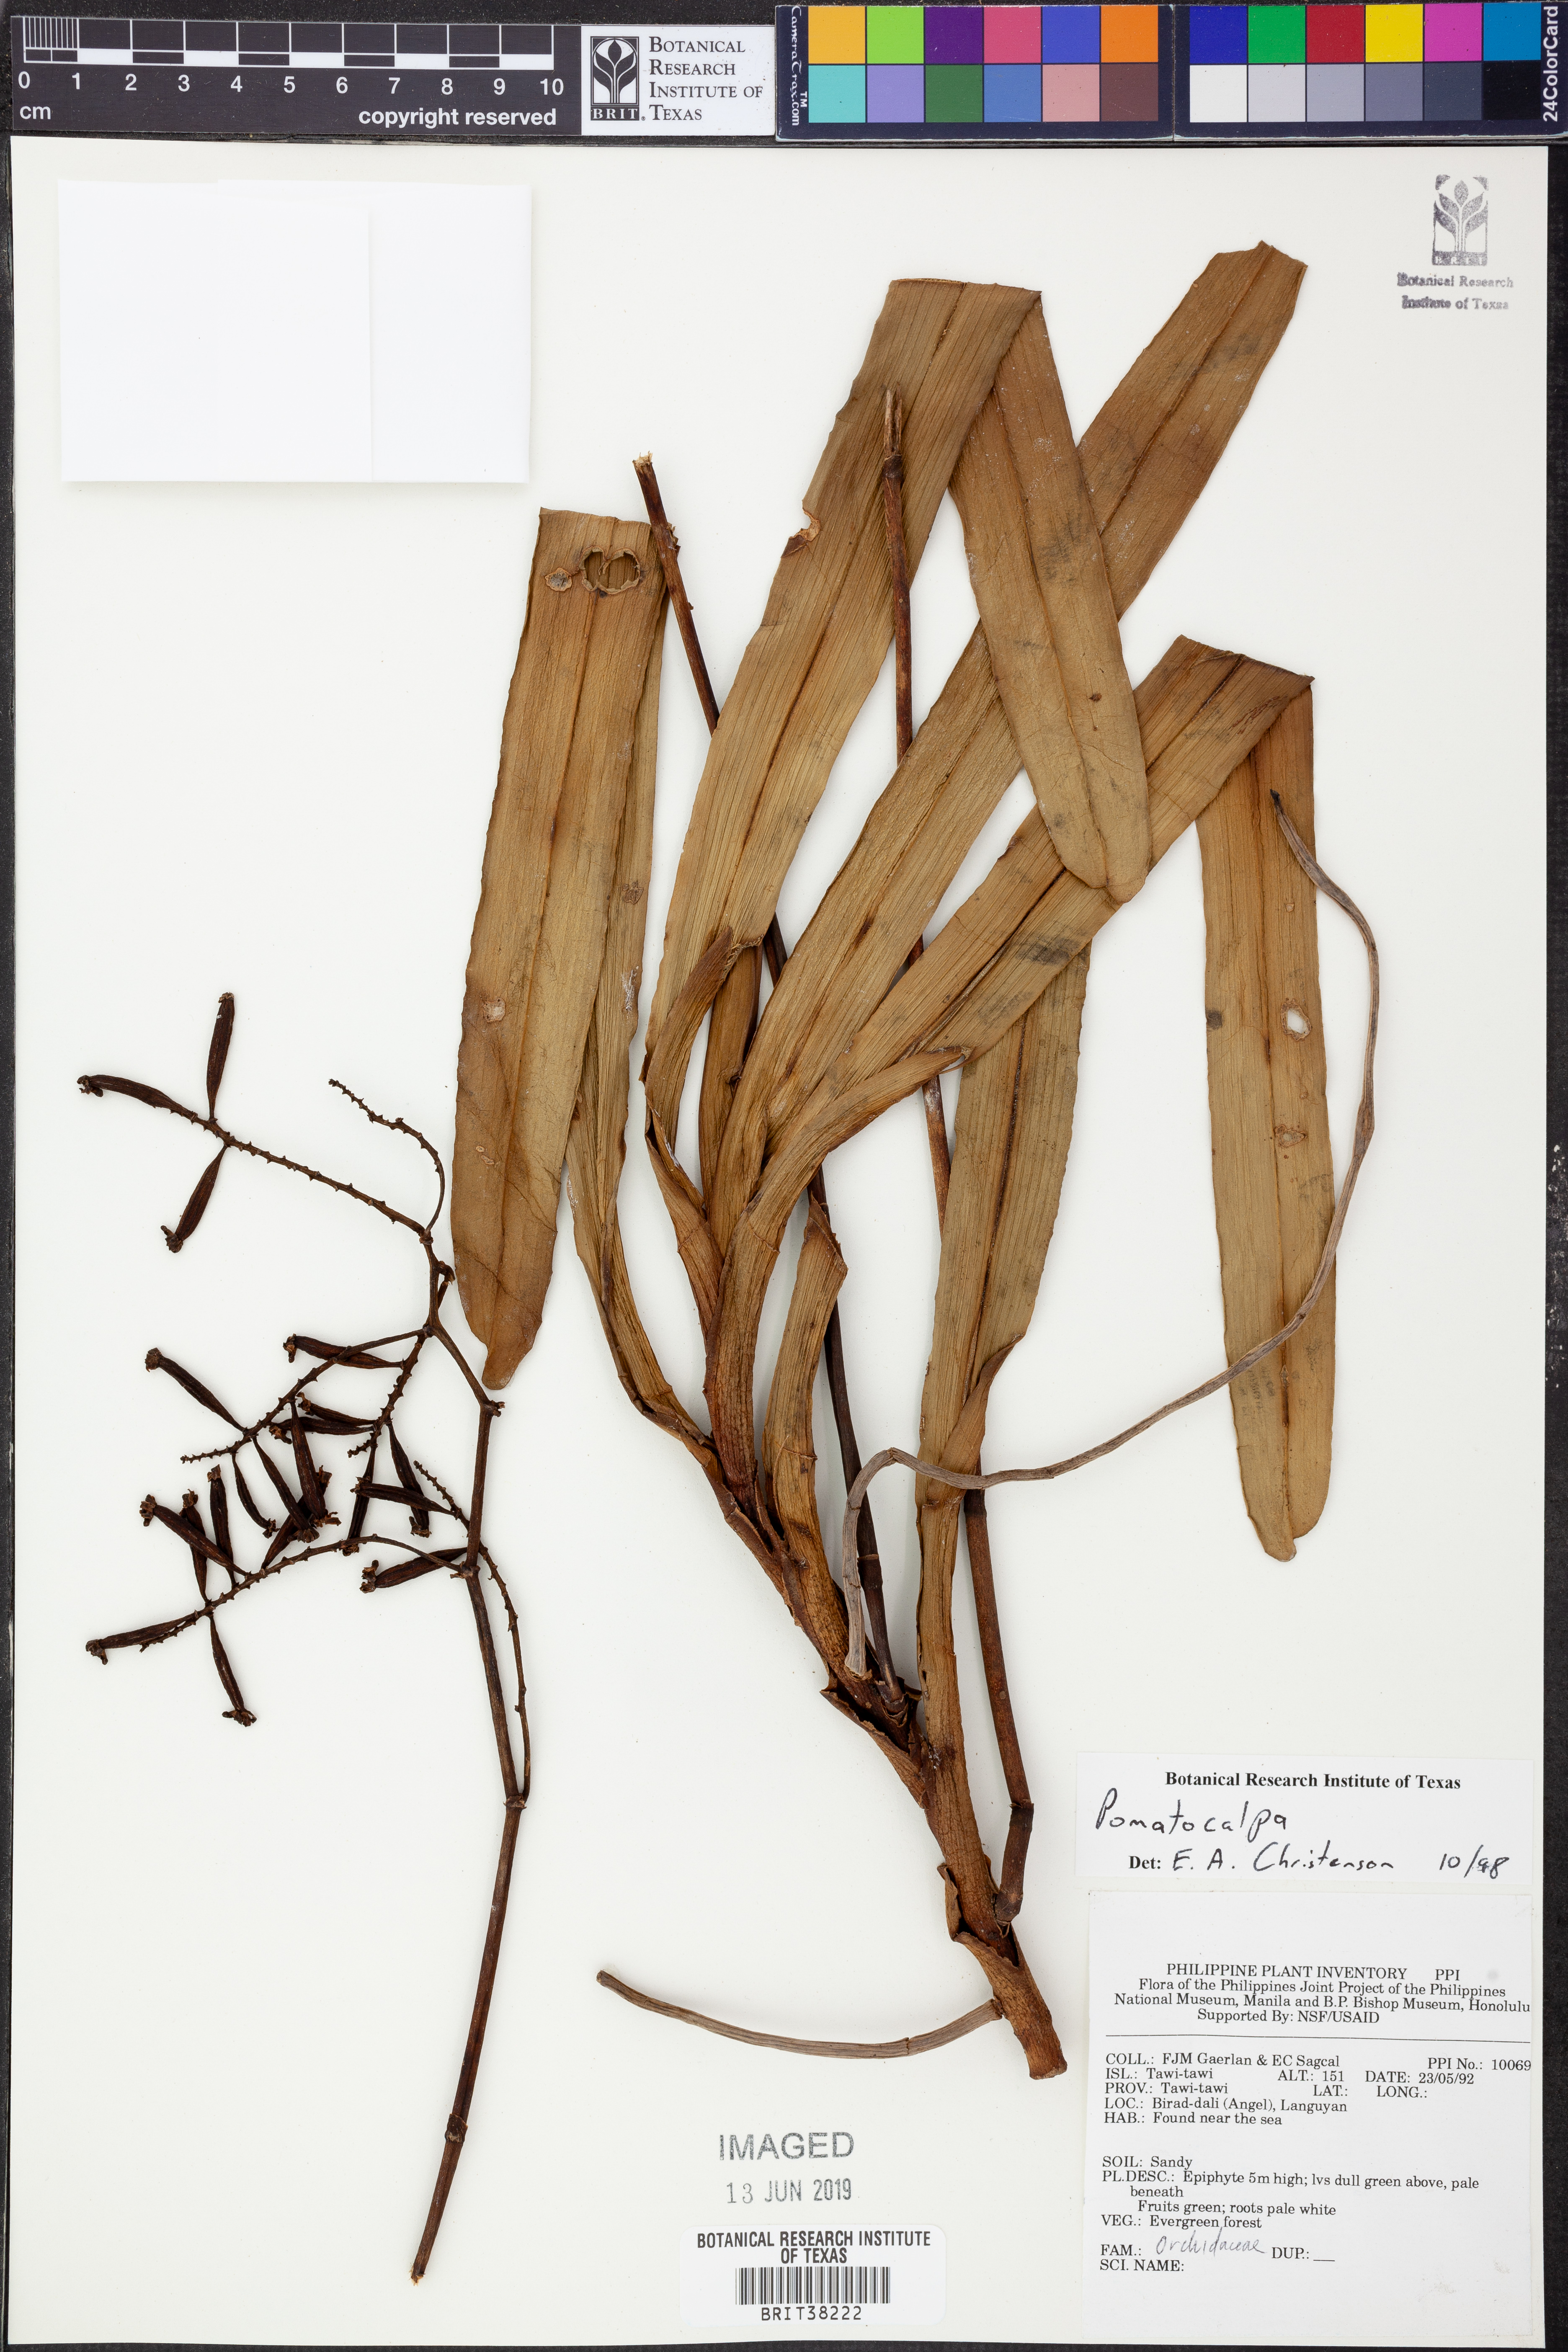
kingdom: Plantae
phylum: Tracheophyta
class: Liliopsida
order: Asparagales
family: Orchidaceae
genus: Pomatocalpa
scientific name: Pomatocalpa
